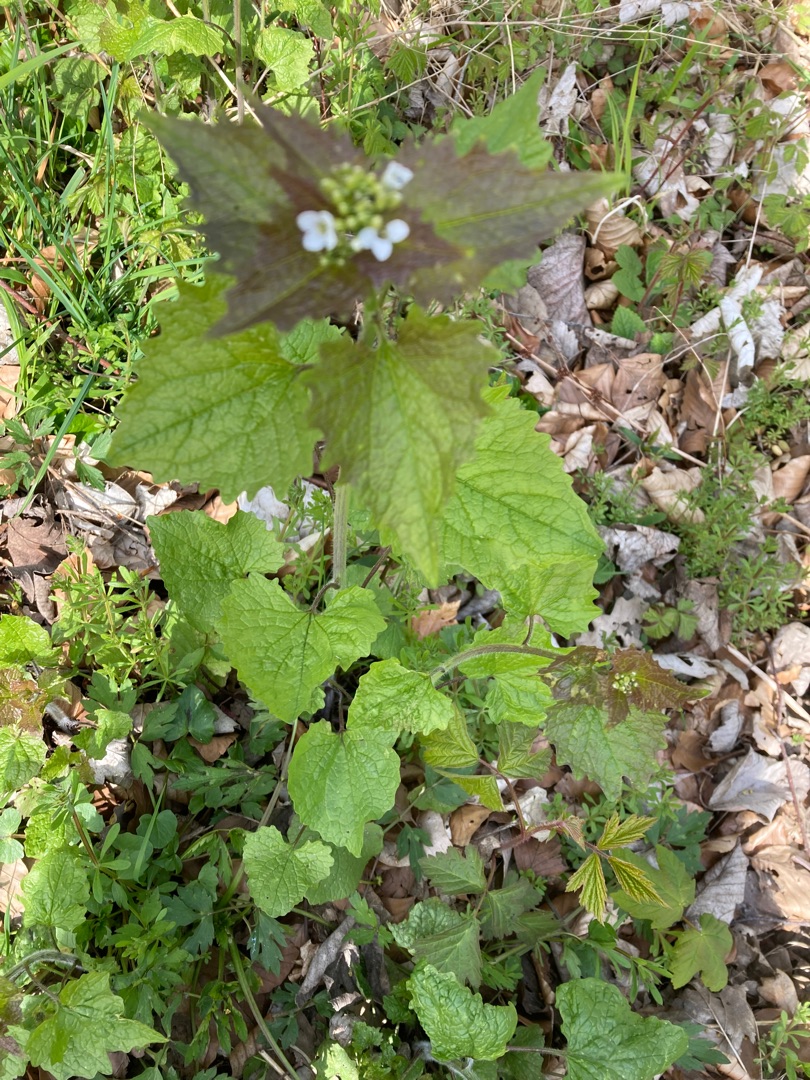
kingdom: Plantae
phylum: Tracheophyta
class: Magnoliopsida
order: Brassicales
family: Brassicaceae
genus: Alliaria
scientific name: Alliaria petiolata
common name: Løgkarse
